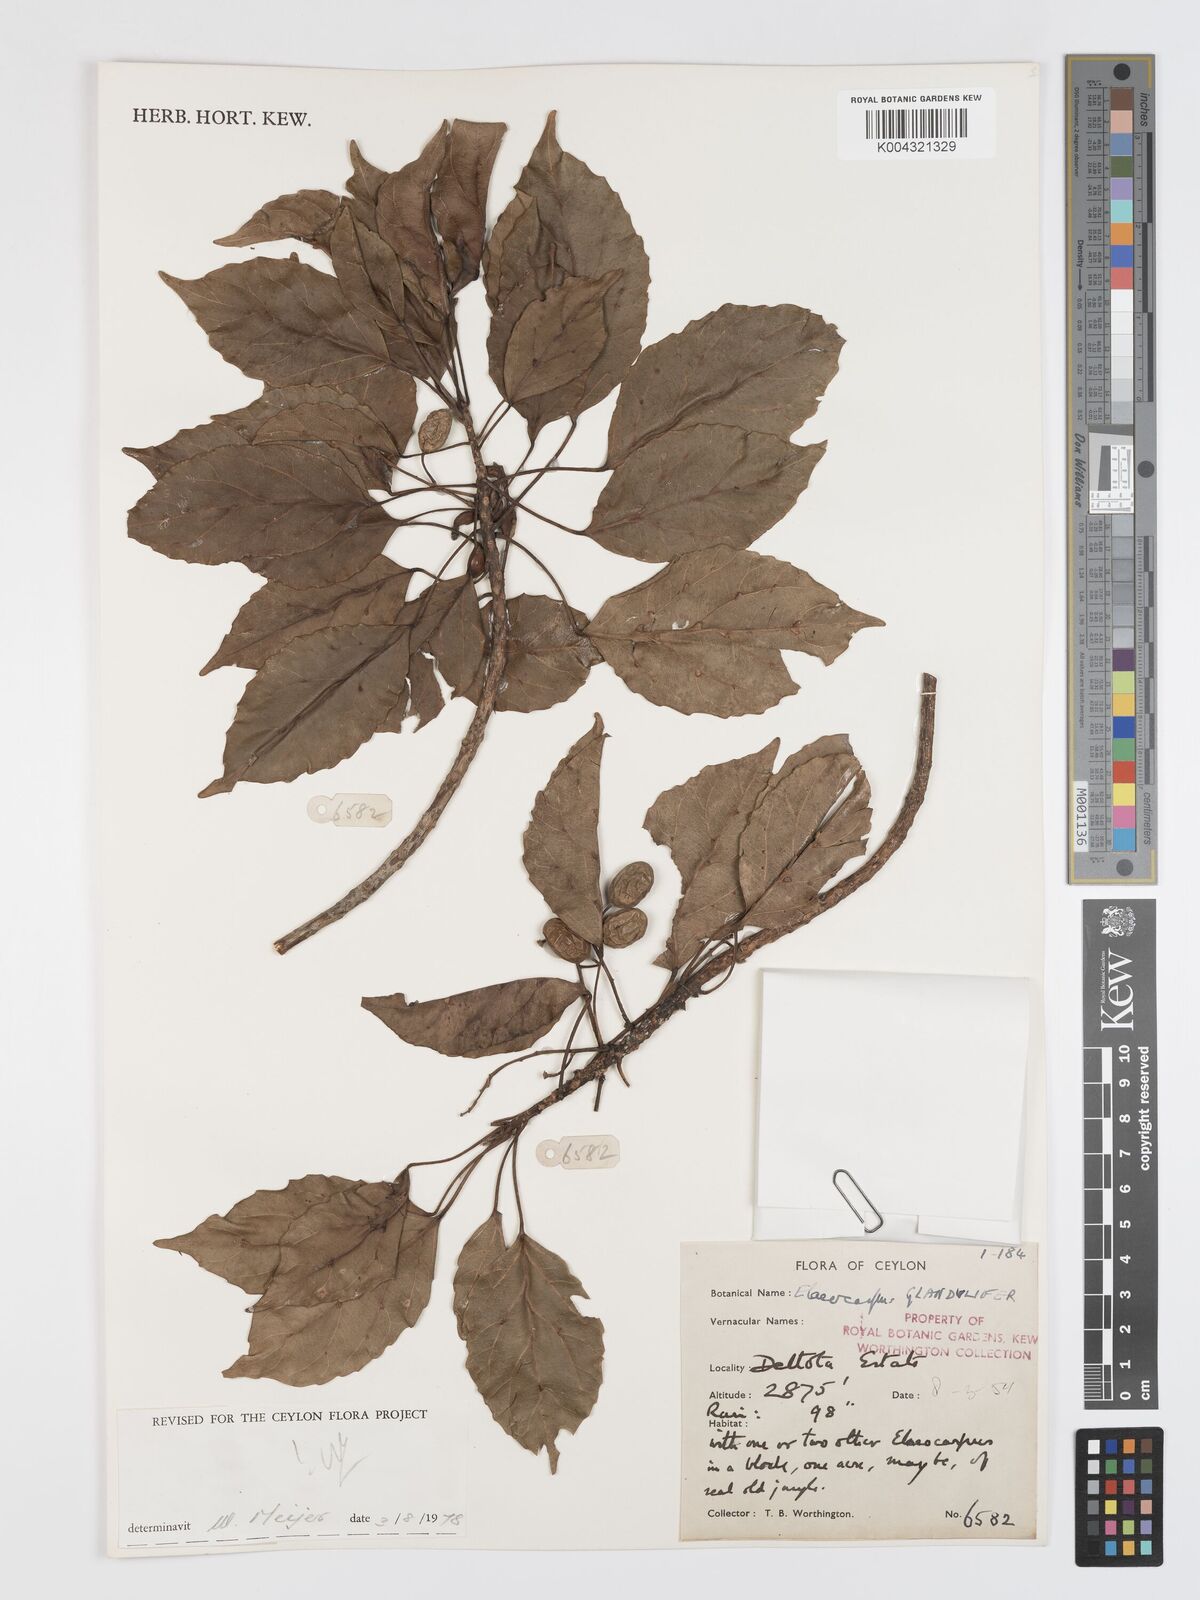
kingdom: Plantae
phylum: Tracheophyta
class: Magnoliopsida
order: Oxalidales
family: Elaeocarpaceae
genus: Elaeocarpus
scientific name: Elaeocarpus glandulifer
